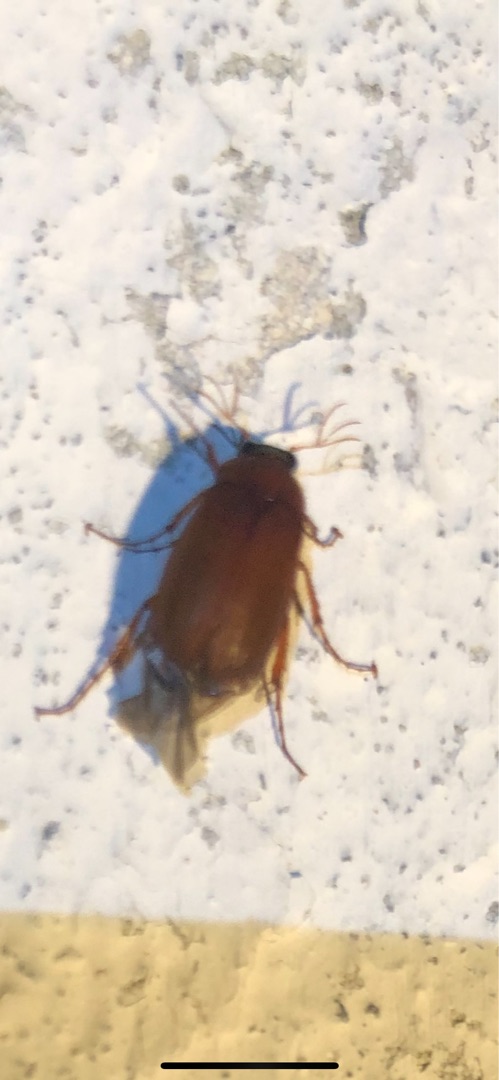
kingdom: Animalia
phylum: Arthropoda
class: Insecta
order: Coleoptera
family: Scarabaeidae
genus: Serica
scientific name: Serica brunnea
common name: Natoldenborre
